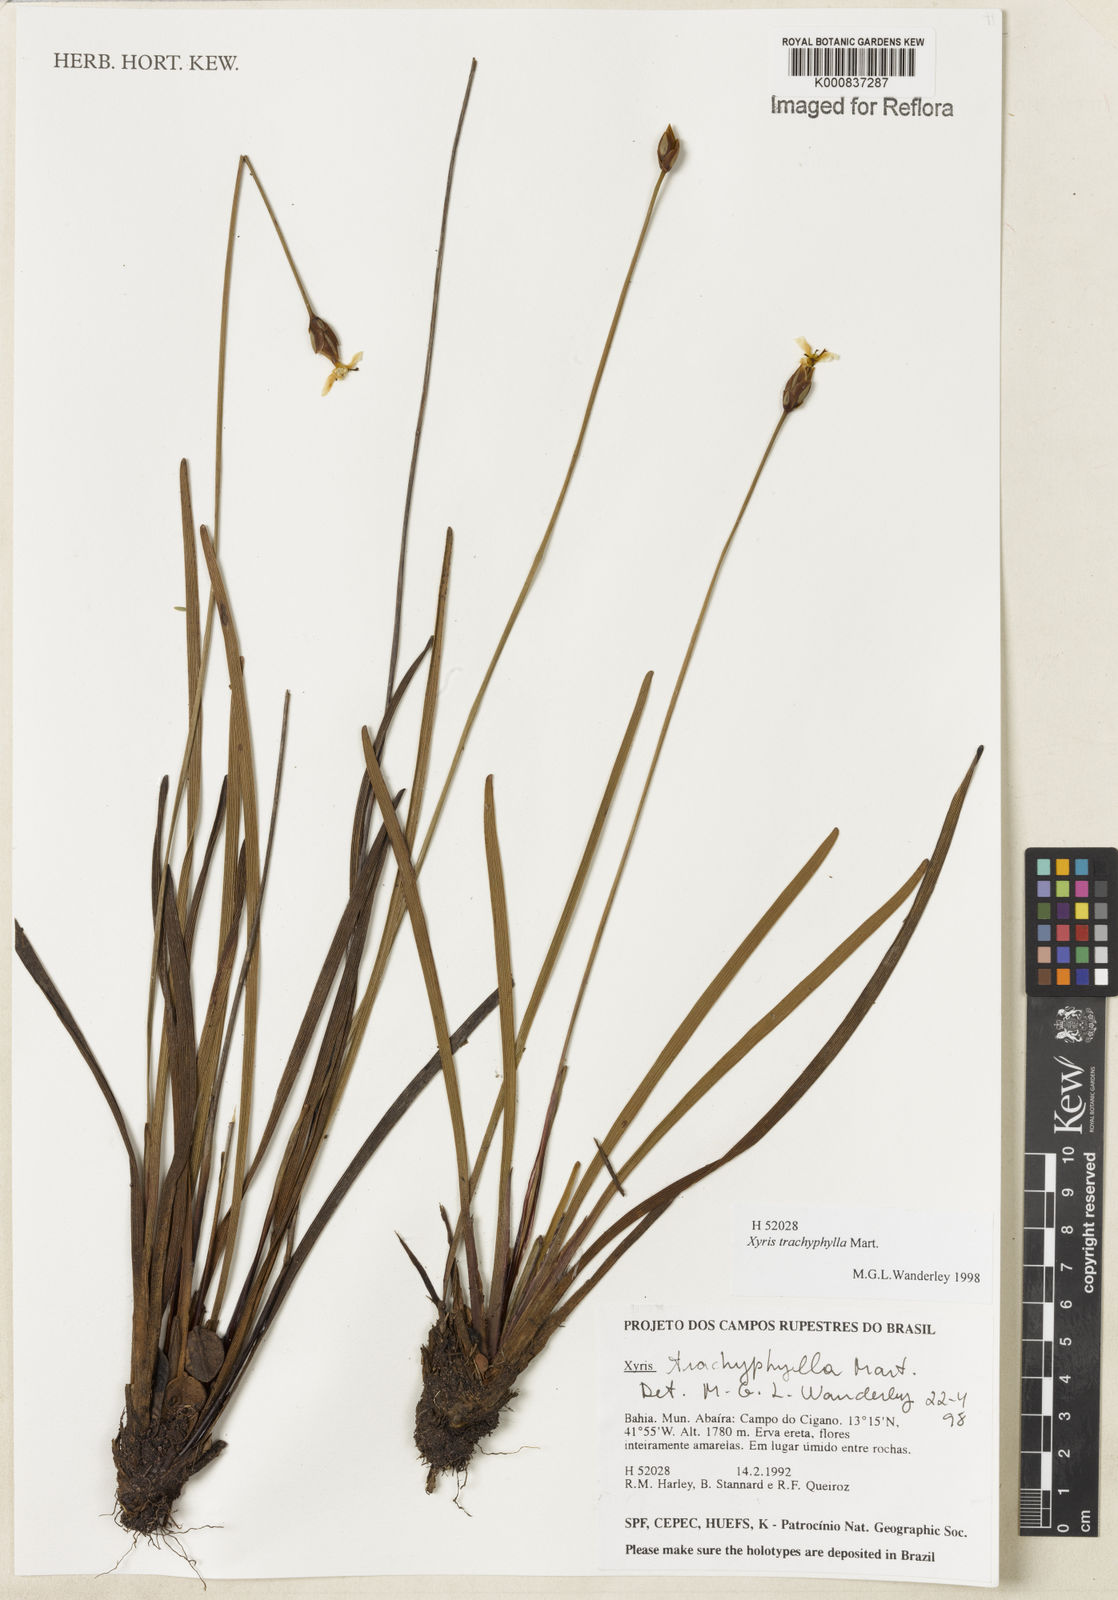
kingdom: Plantae
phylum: Tracheophyta
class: Liliopsida
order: Poales
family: Xyridaceae
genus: Xyris
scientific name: Xyris trachyphylla
